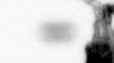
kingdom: Animalia
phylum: Arthropoda
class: Copepoda
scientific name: Copepoda
